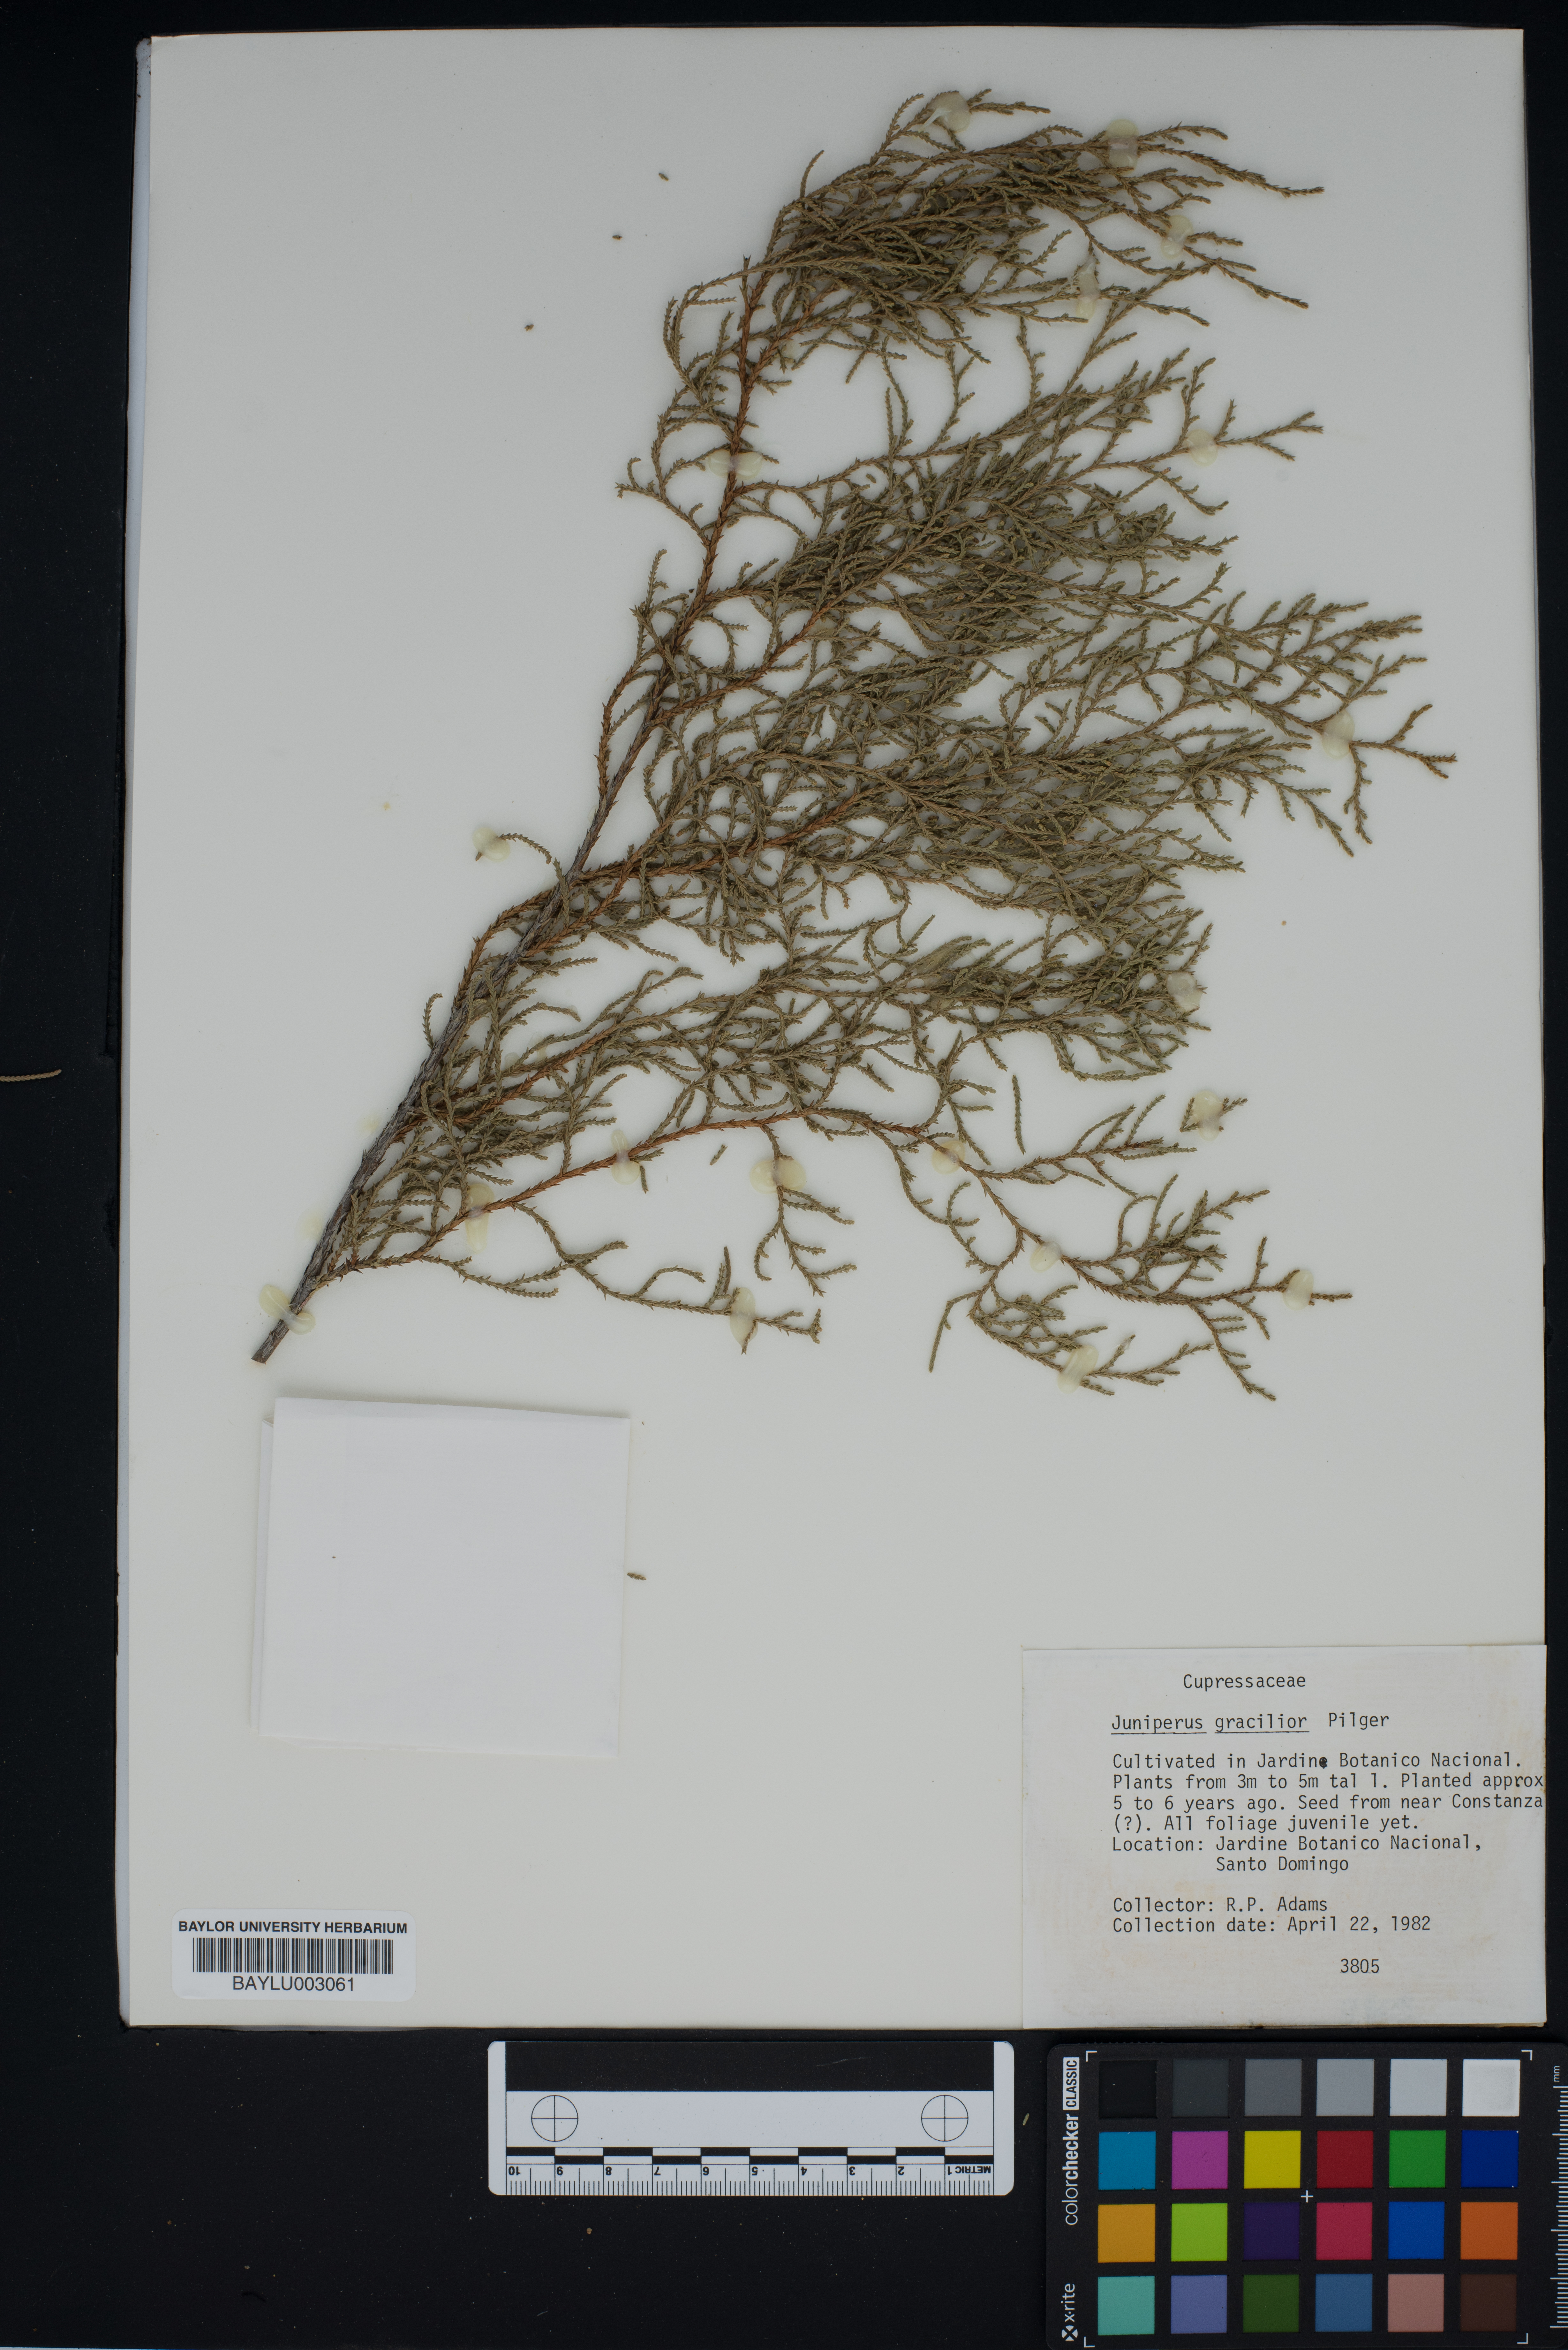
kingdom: Plantae
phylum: Tracheophyta
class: Pinopsida
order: Pinales
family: Cupressaceae
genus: Juniperus
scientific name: Juniperus gracilior
